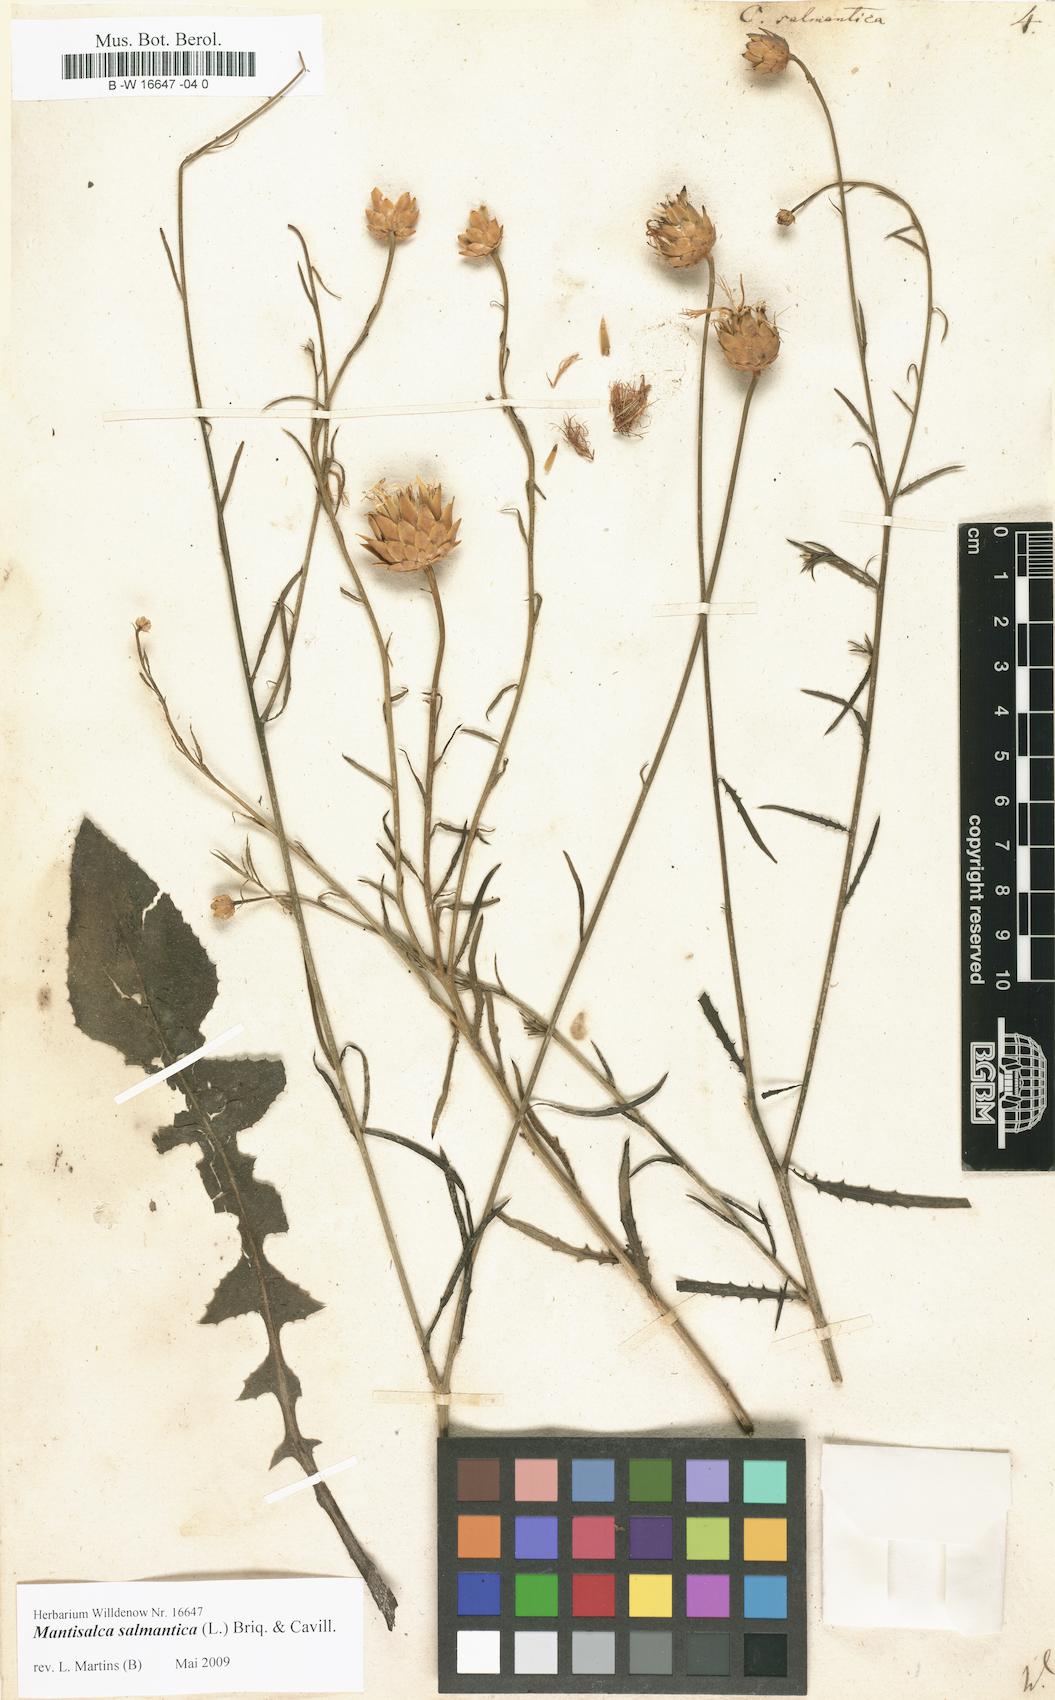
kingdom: Plantae
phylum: Tracheophyta
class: Magnoliopsida
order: Asterales
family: Asteraceae
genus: Mantisalca
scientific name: Mantisalca salmantica
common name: Dagger flower
